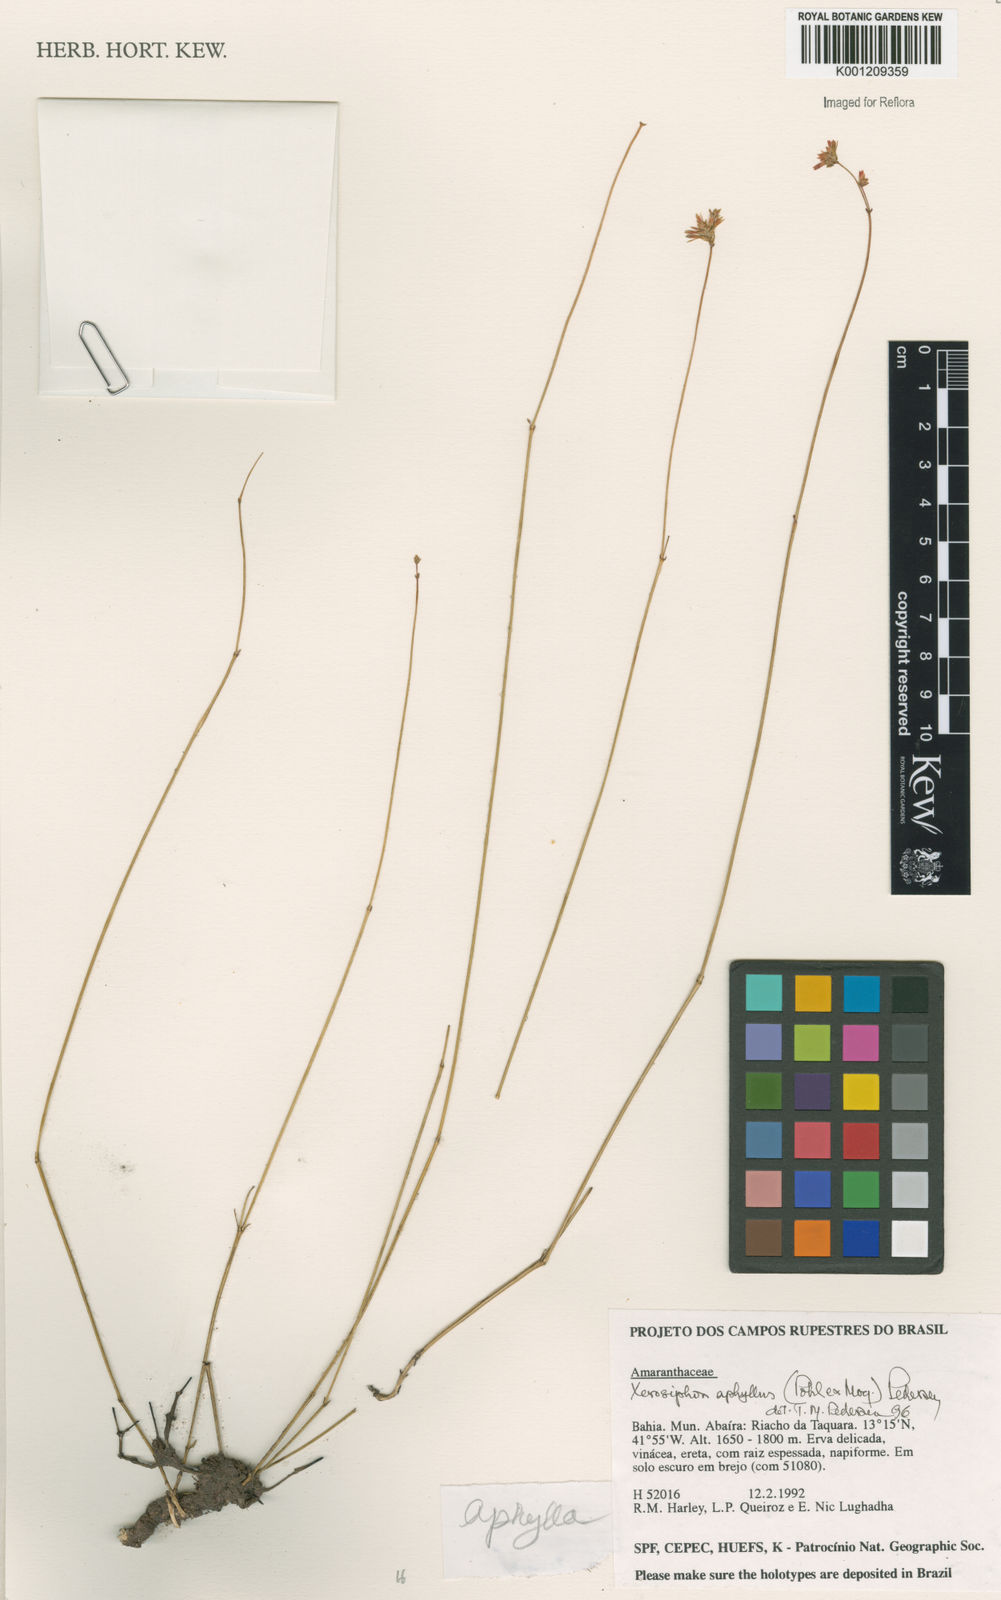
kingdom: Plantae
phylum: Tracheophyta
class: Magnoliopsida
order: Caryophyllales
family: Amaranthaceae
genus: Gomphrena
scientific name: Gomphrena aphylla
